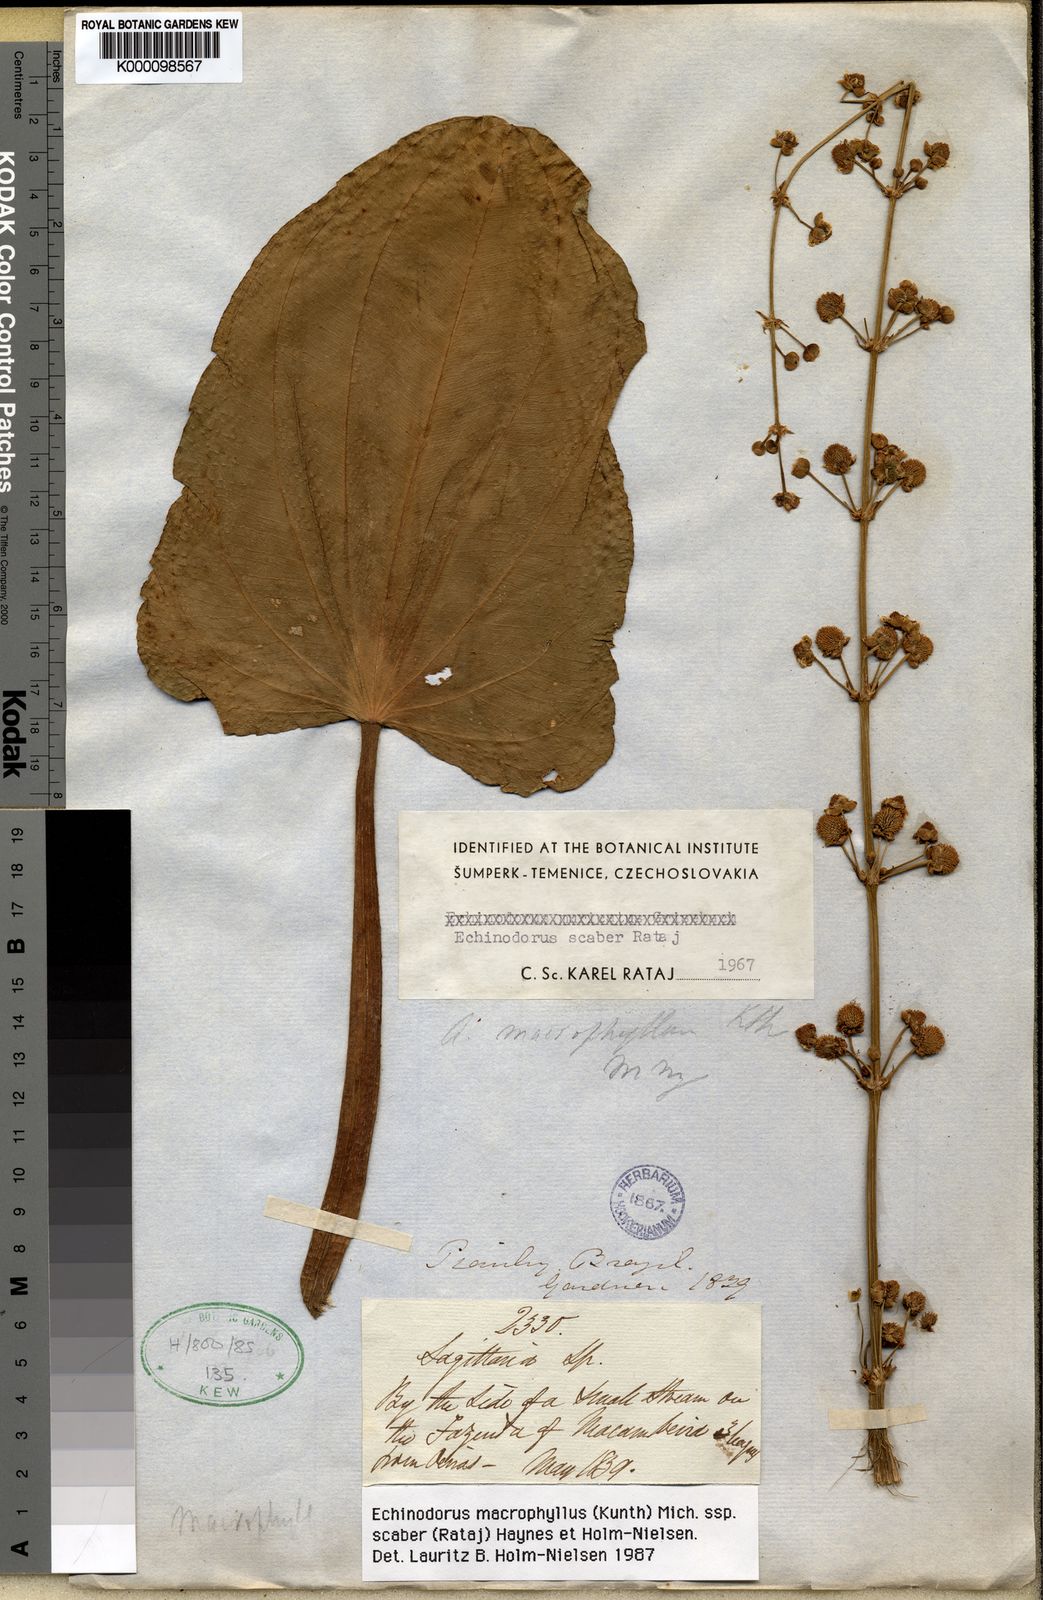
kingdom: Plantae
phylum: Tracheophyta
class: Liliopsida
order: Alismatales
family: Alismataceae
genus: Aquarius
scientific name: Aquarius scaber
